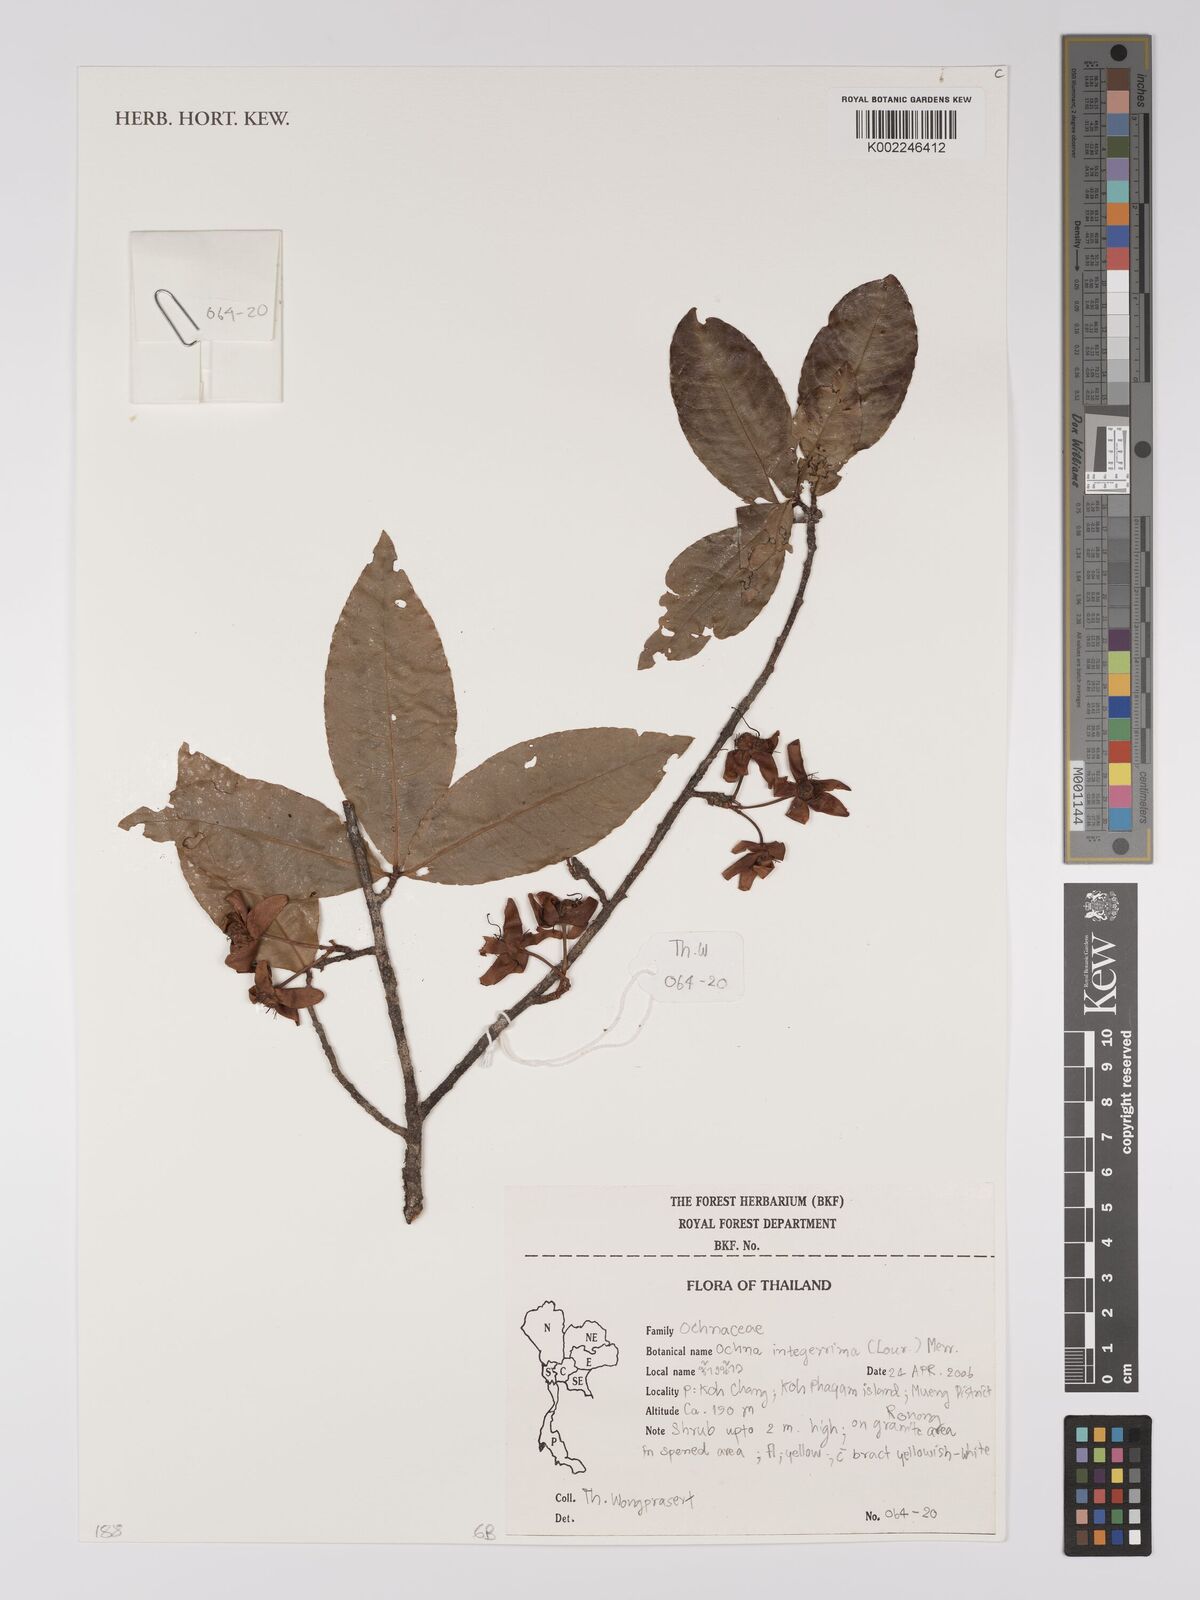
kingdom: Plantae
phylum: Tracheophyta
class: Magnoliopsida
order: Malpighiales
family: Ochnaceae
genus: Ochna
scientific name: Ochna integerrima
